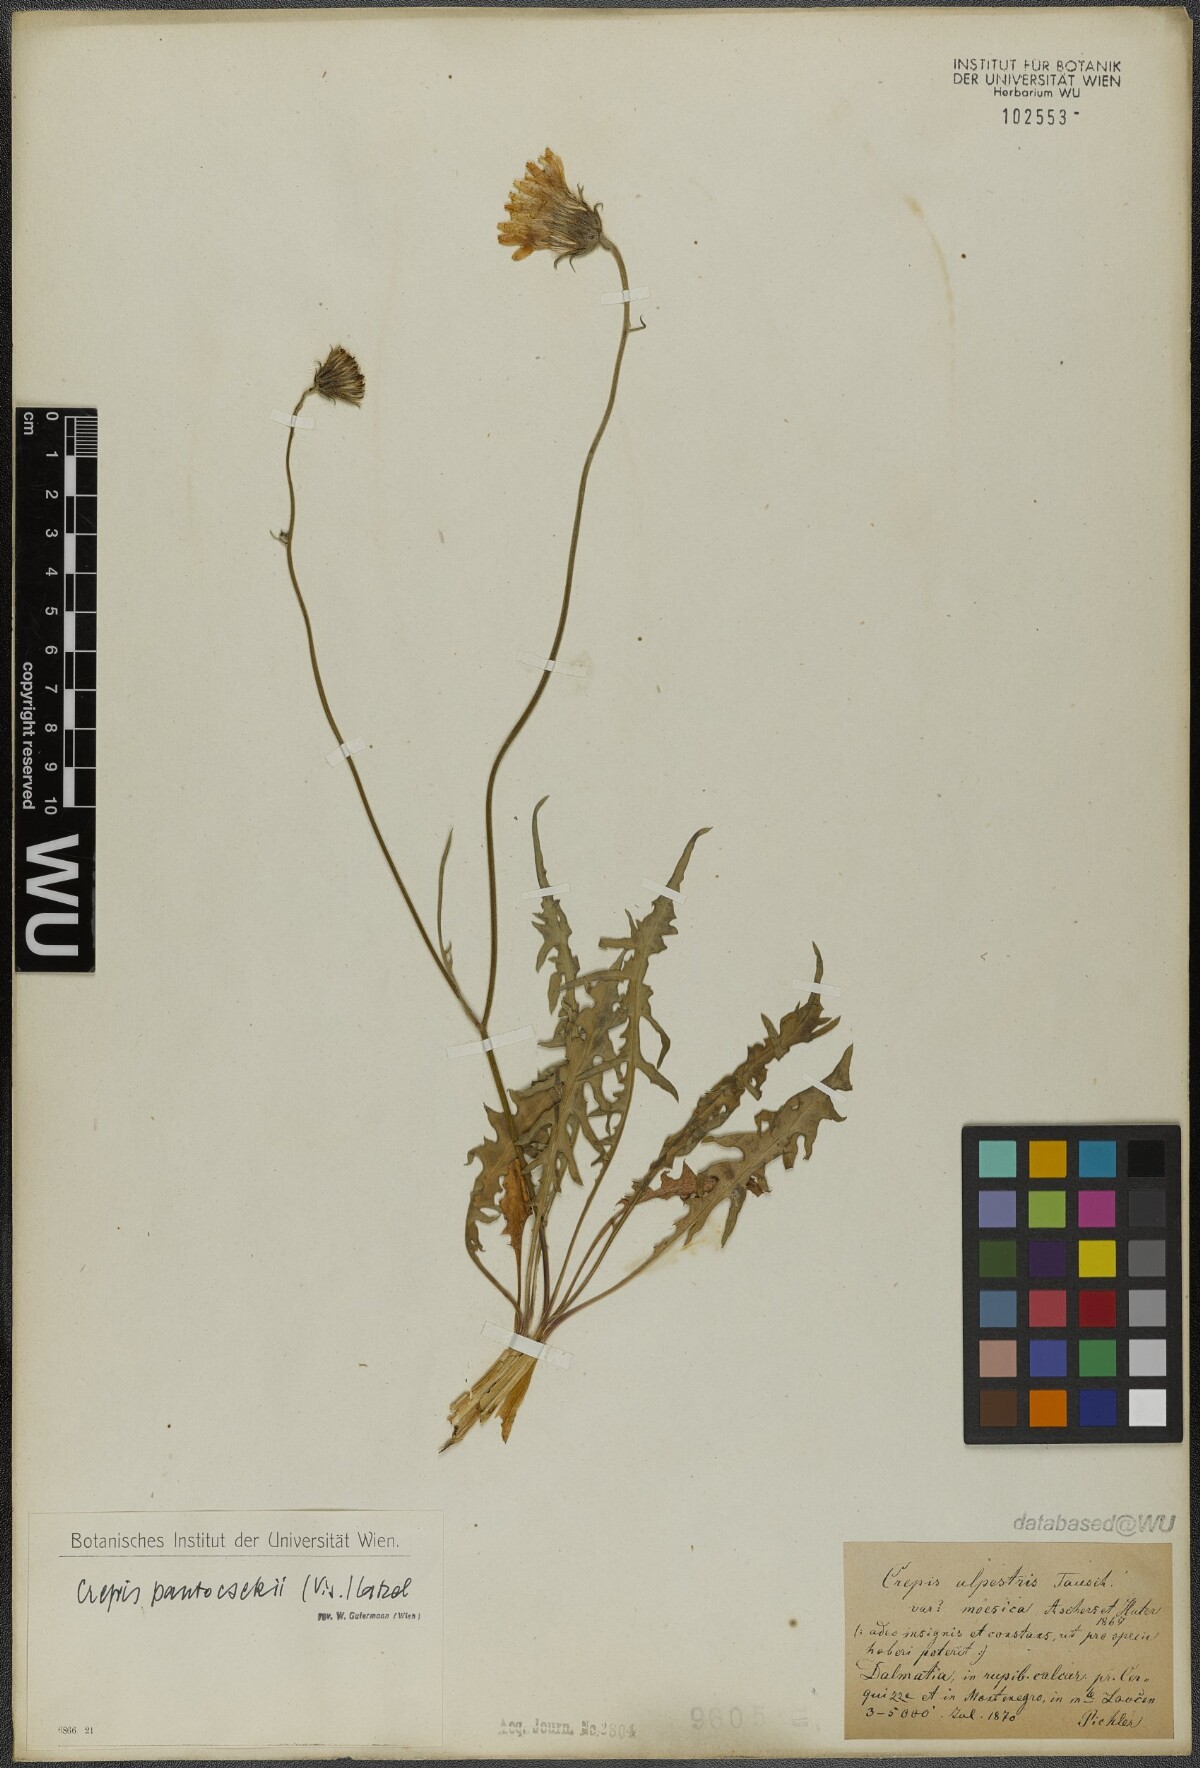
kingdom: Plantae
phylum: Tracheophyta
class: Magnoliopsida
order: Asterales
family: Asteraceae
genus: Crepis
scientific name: Crepis pantocsekii
